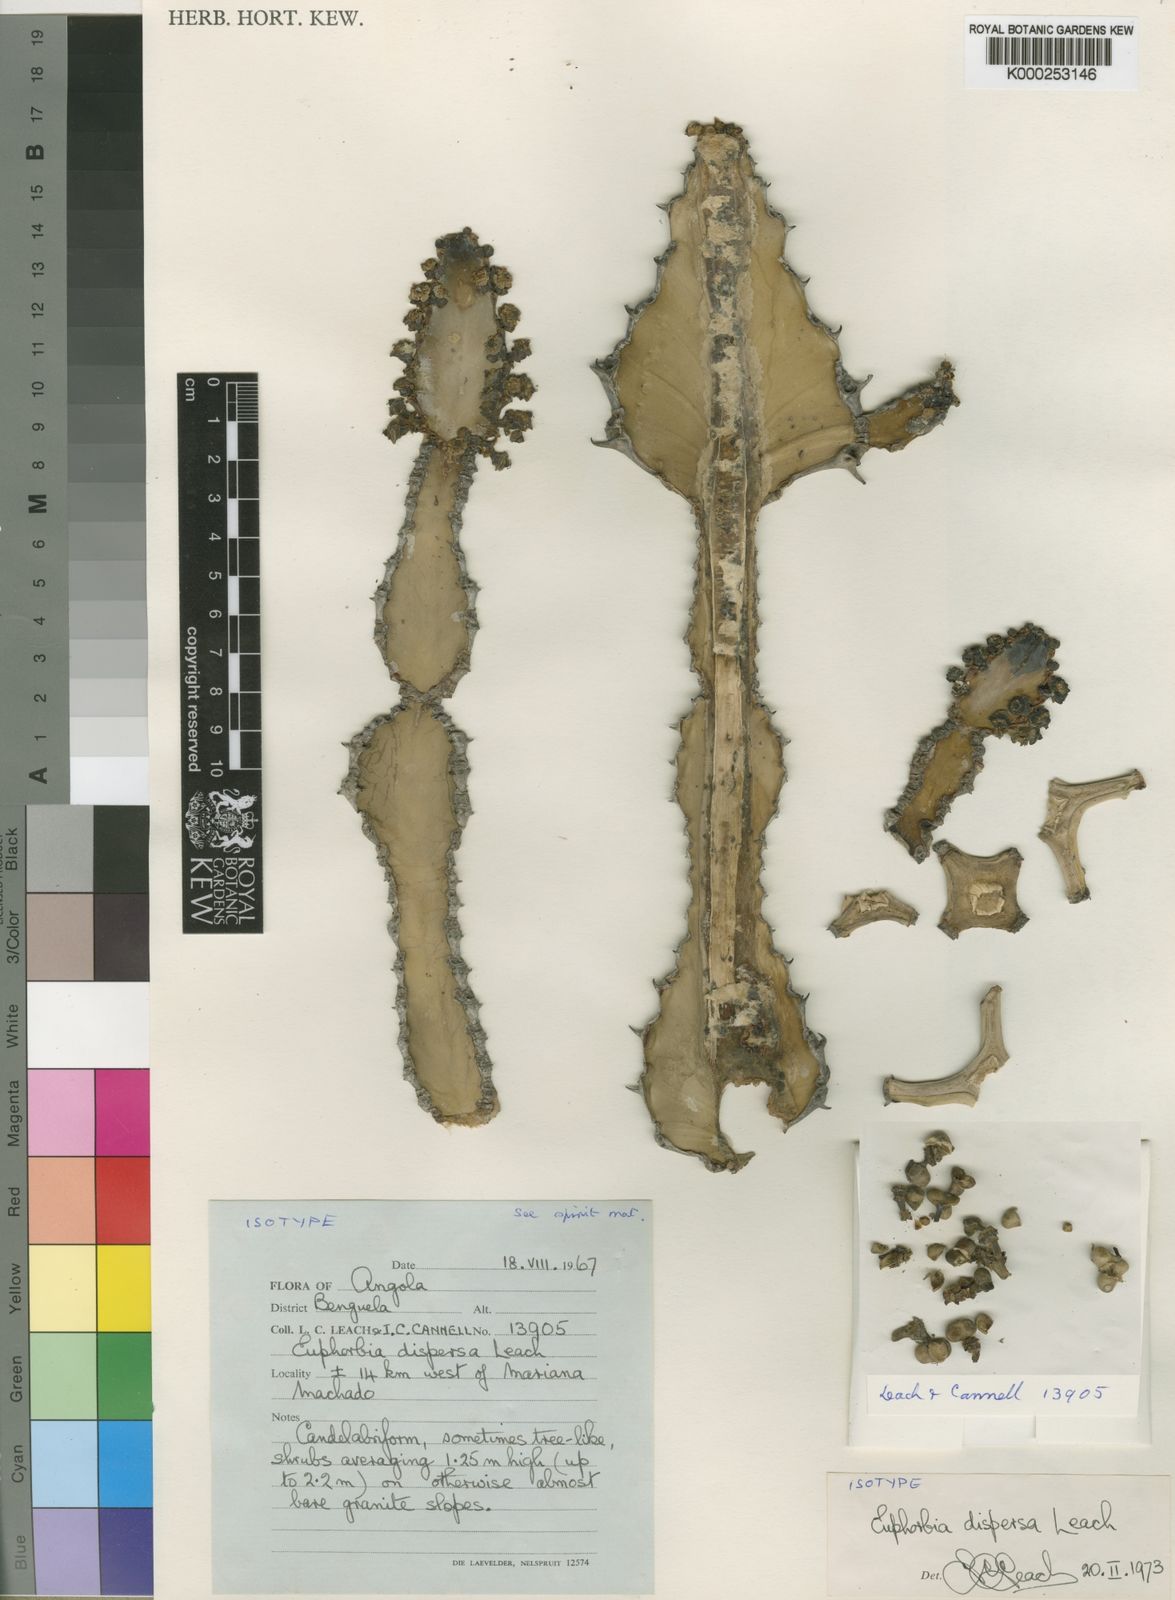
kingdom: Plantae
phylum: Tracheophyta
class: Magnoliopsida
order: Malpighiales
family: Euphorbiaceae
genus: Euphorbia
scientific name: Euphorbia dispersa
